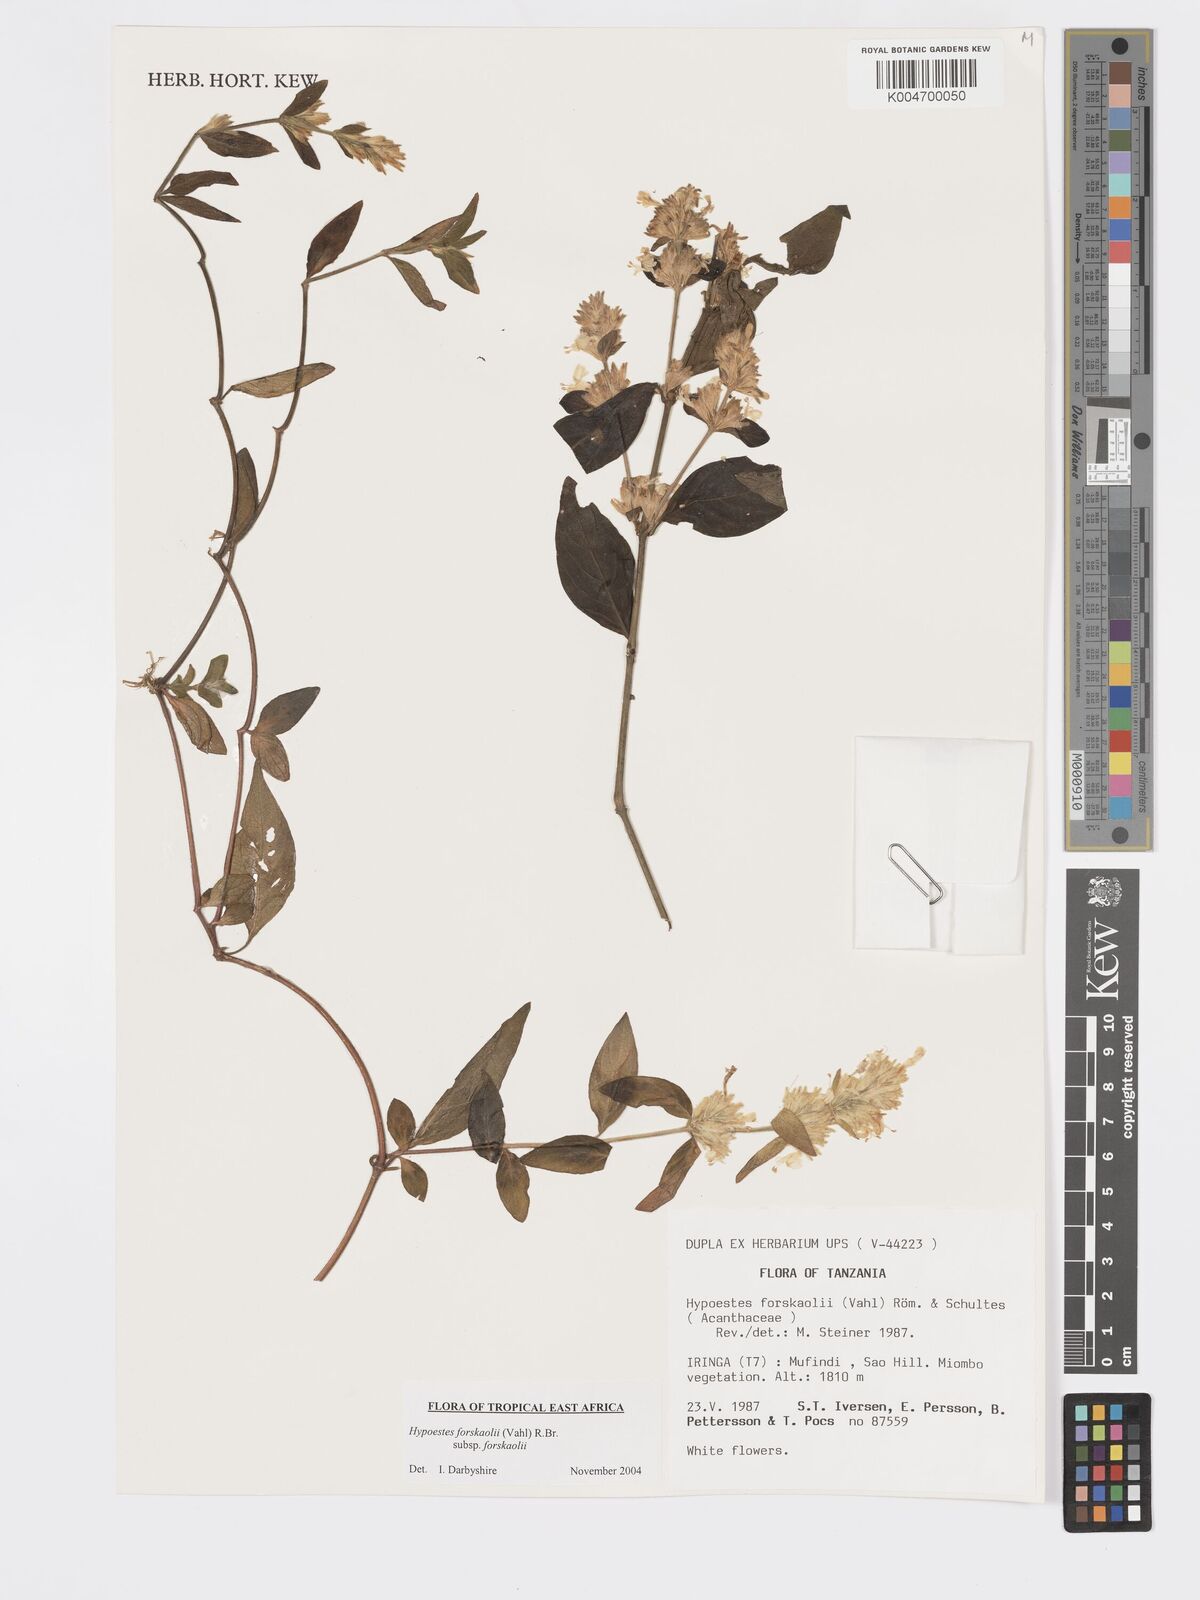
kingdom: Plantae
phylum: Tracheophyta
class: Magnoliopsida
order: Lamiales
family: Acanthaceae
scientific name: Acanthaceae
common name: Acanthaceae
